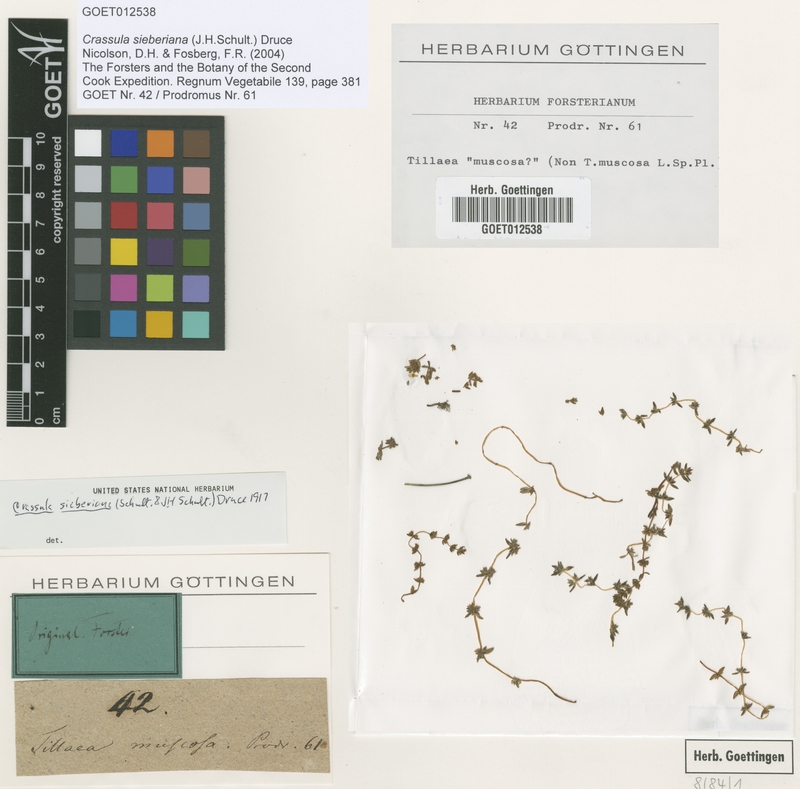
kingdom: Plantae
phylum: Tracheophyta
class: Magnoliopsida
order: Saxifragales
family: Crassulaceae
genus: Crassula
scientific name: Crassula sieberiana
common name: Siberian pygmyweed
